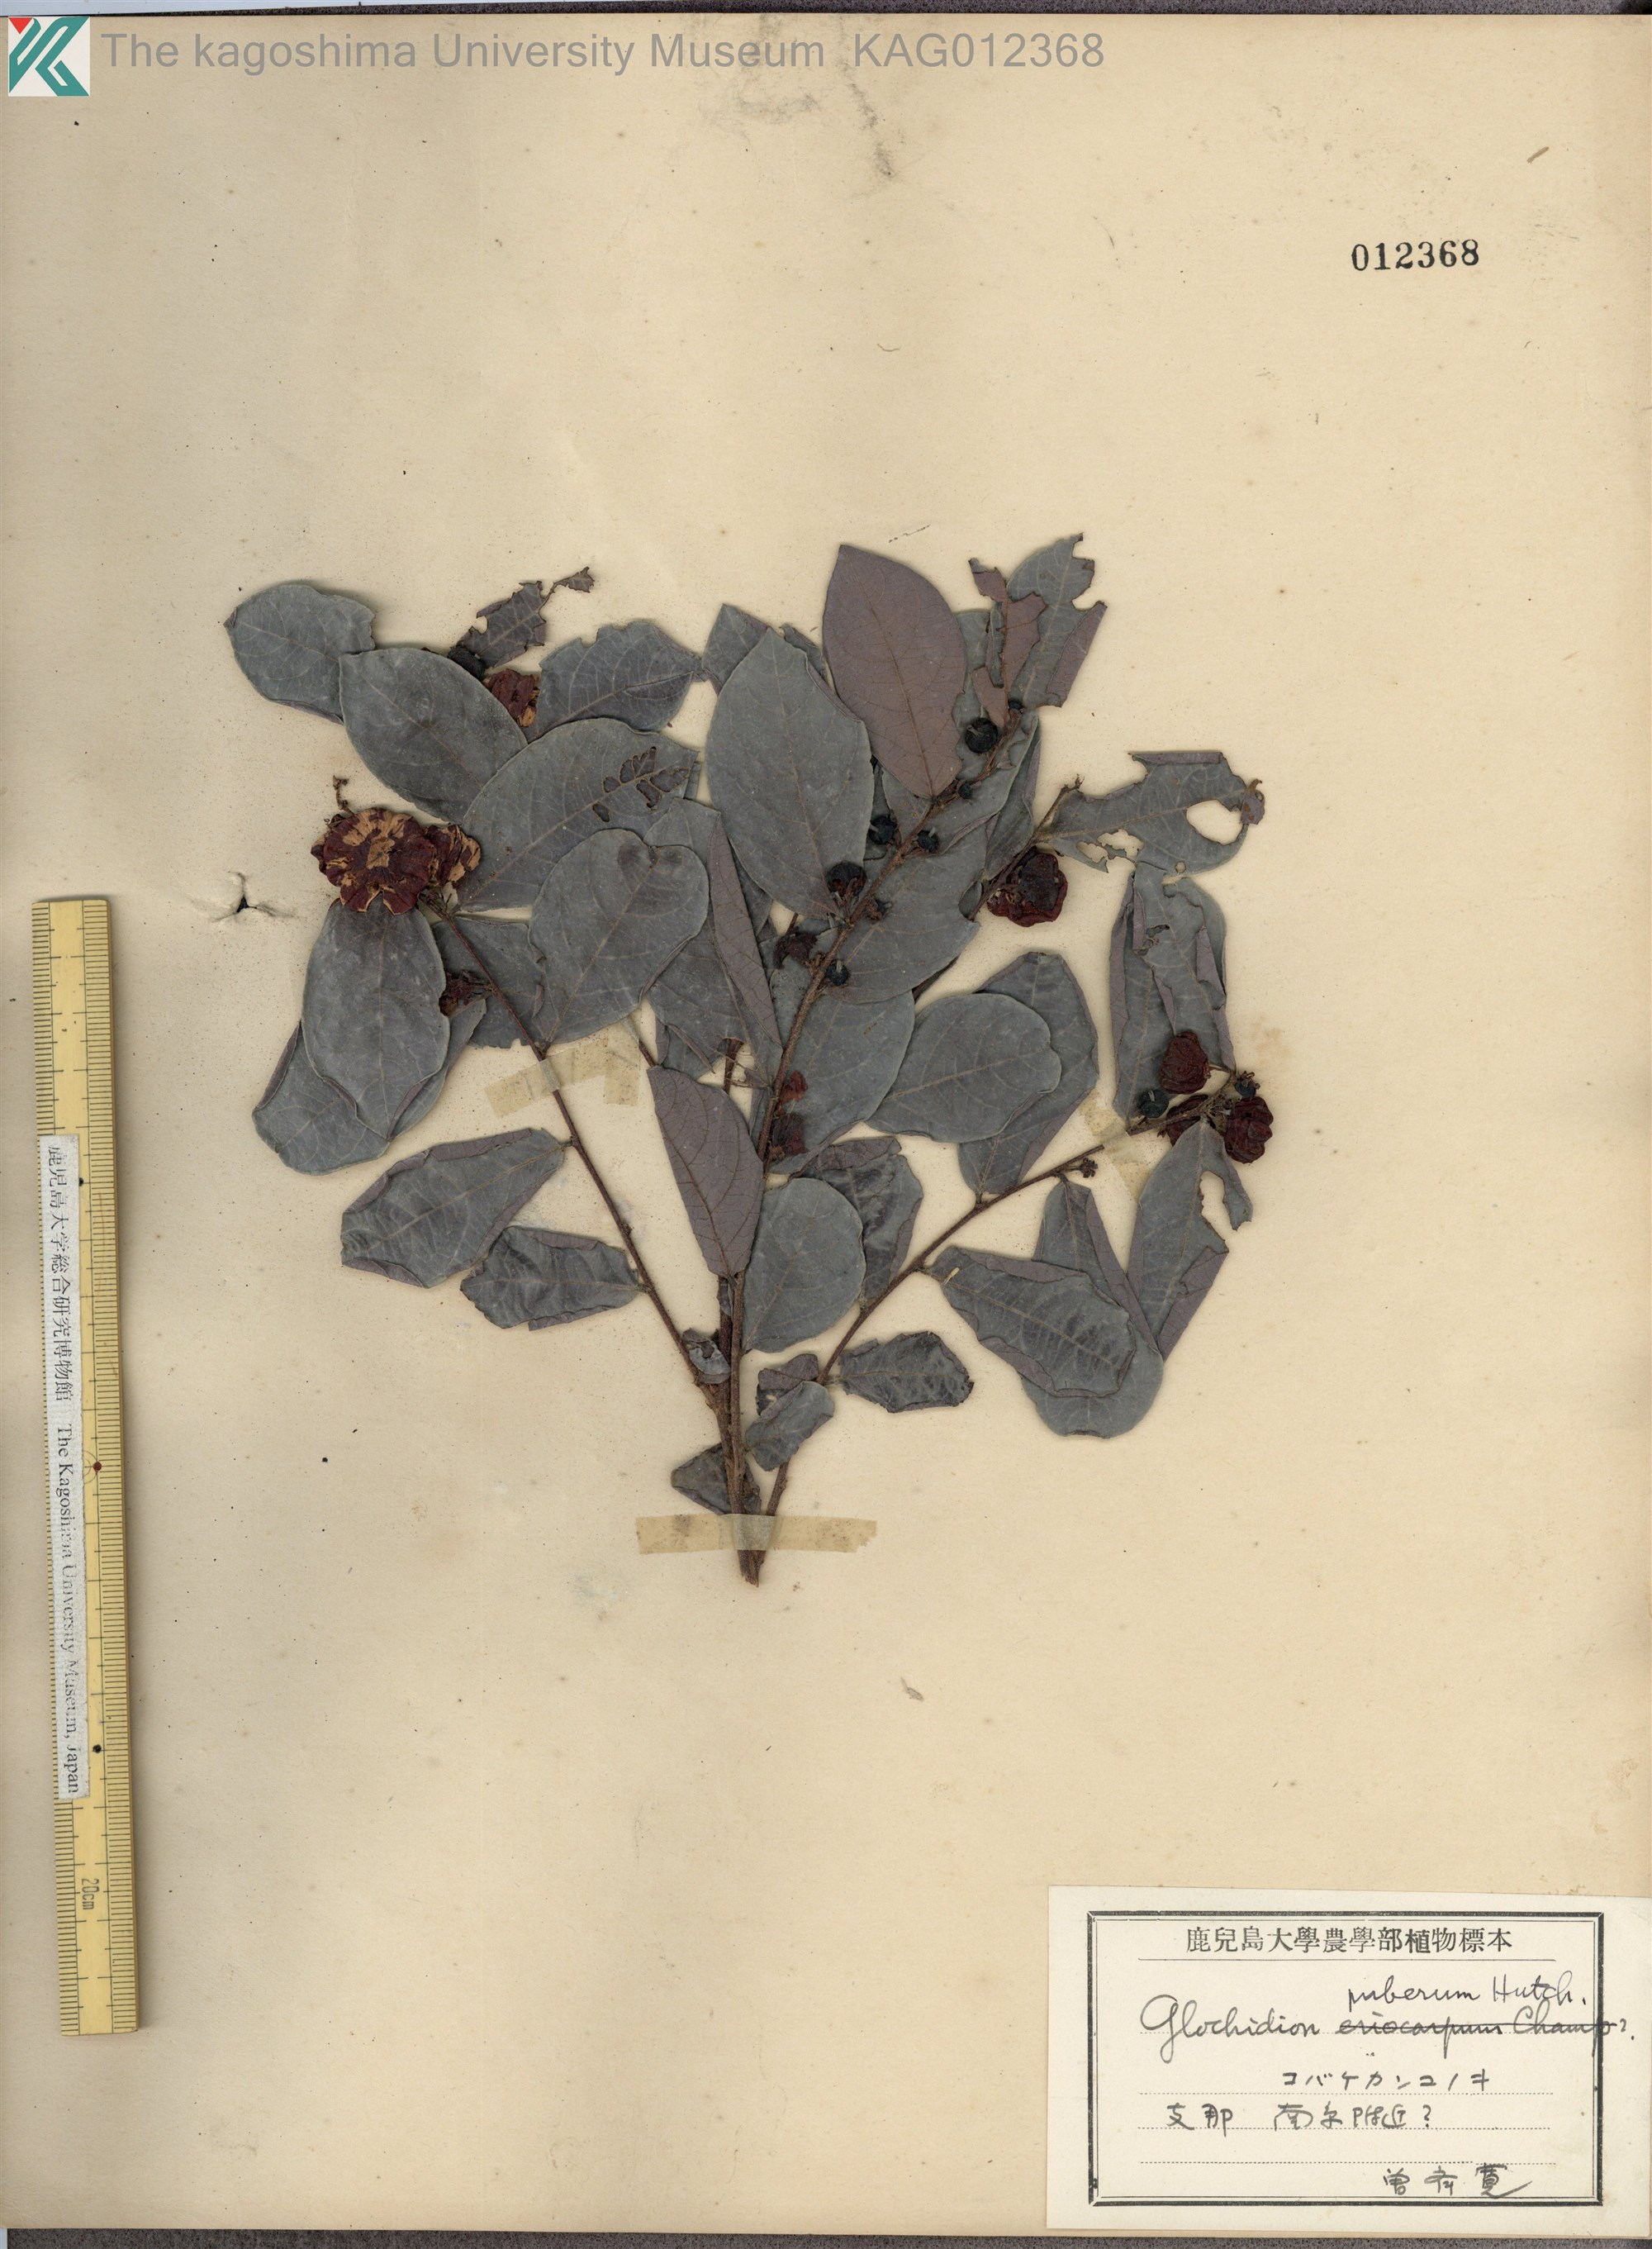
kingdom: Plantae
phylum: Tracheophyta
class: Magnoliopsida
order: Malpighiales
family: Phyllanthaceae
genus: Glochidion
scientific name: Glochidion puberum
